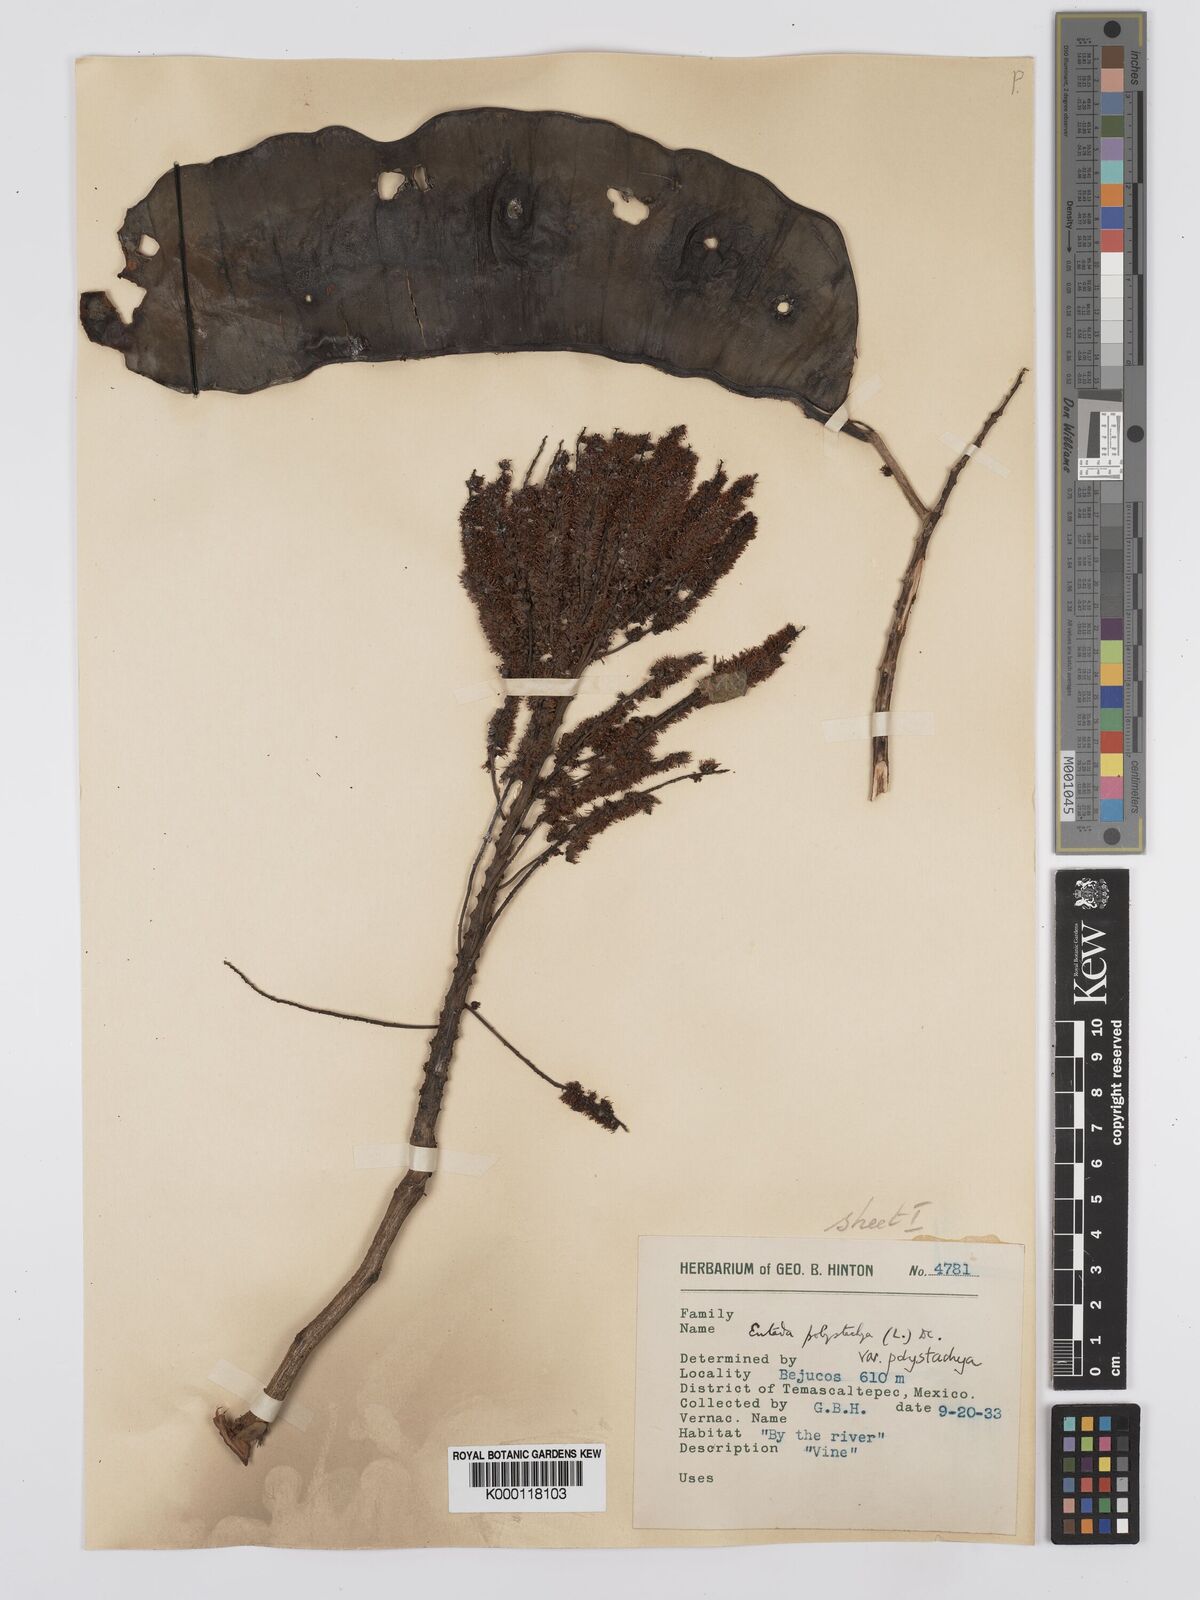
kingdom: Plantae
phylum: Tracheophyta
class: Magnoliopsida
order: Fabales
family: Fabaceae
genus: Entada
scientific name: Entada polystachya
